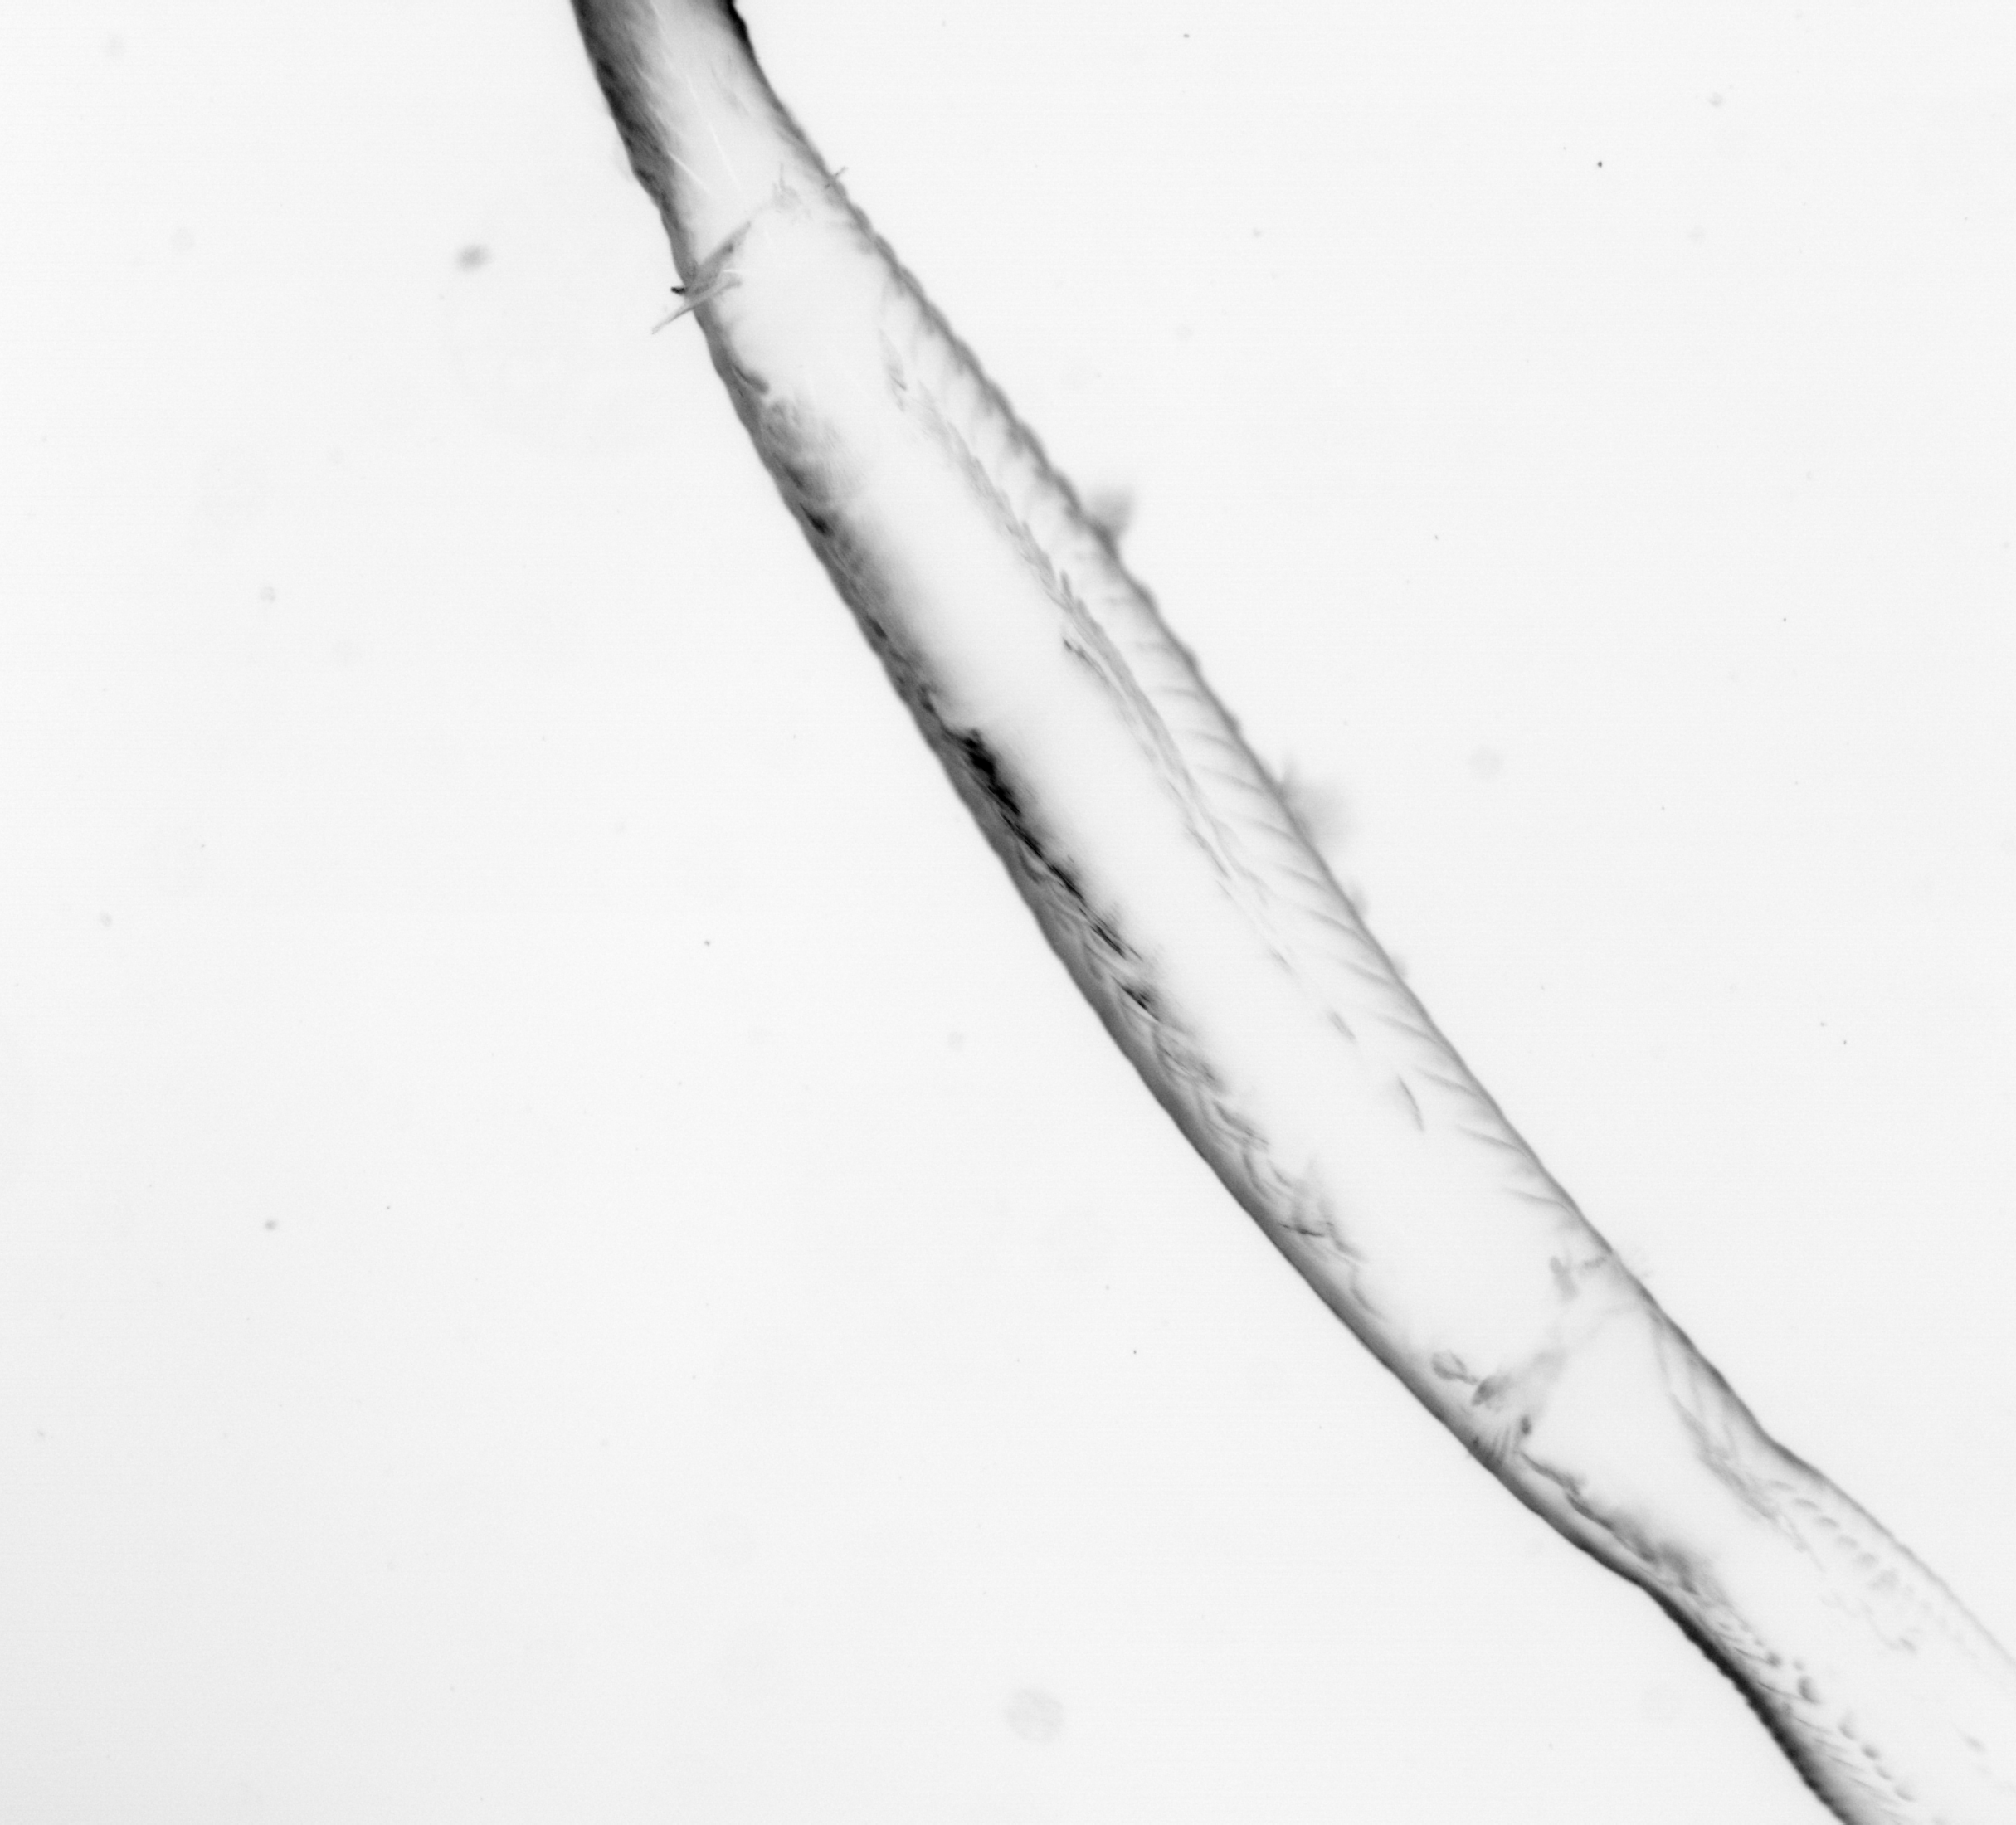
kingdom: Animalia
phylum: Chaetognatha
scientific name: Chaetognatha
